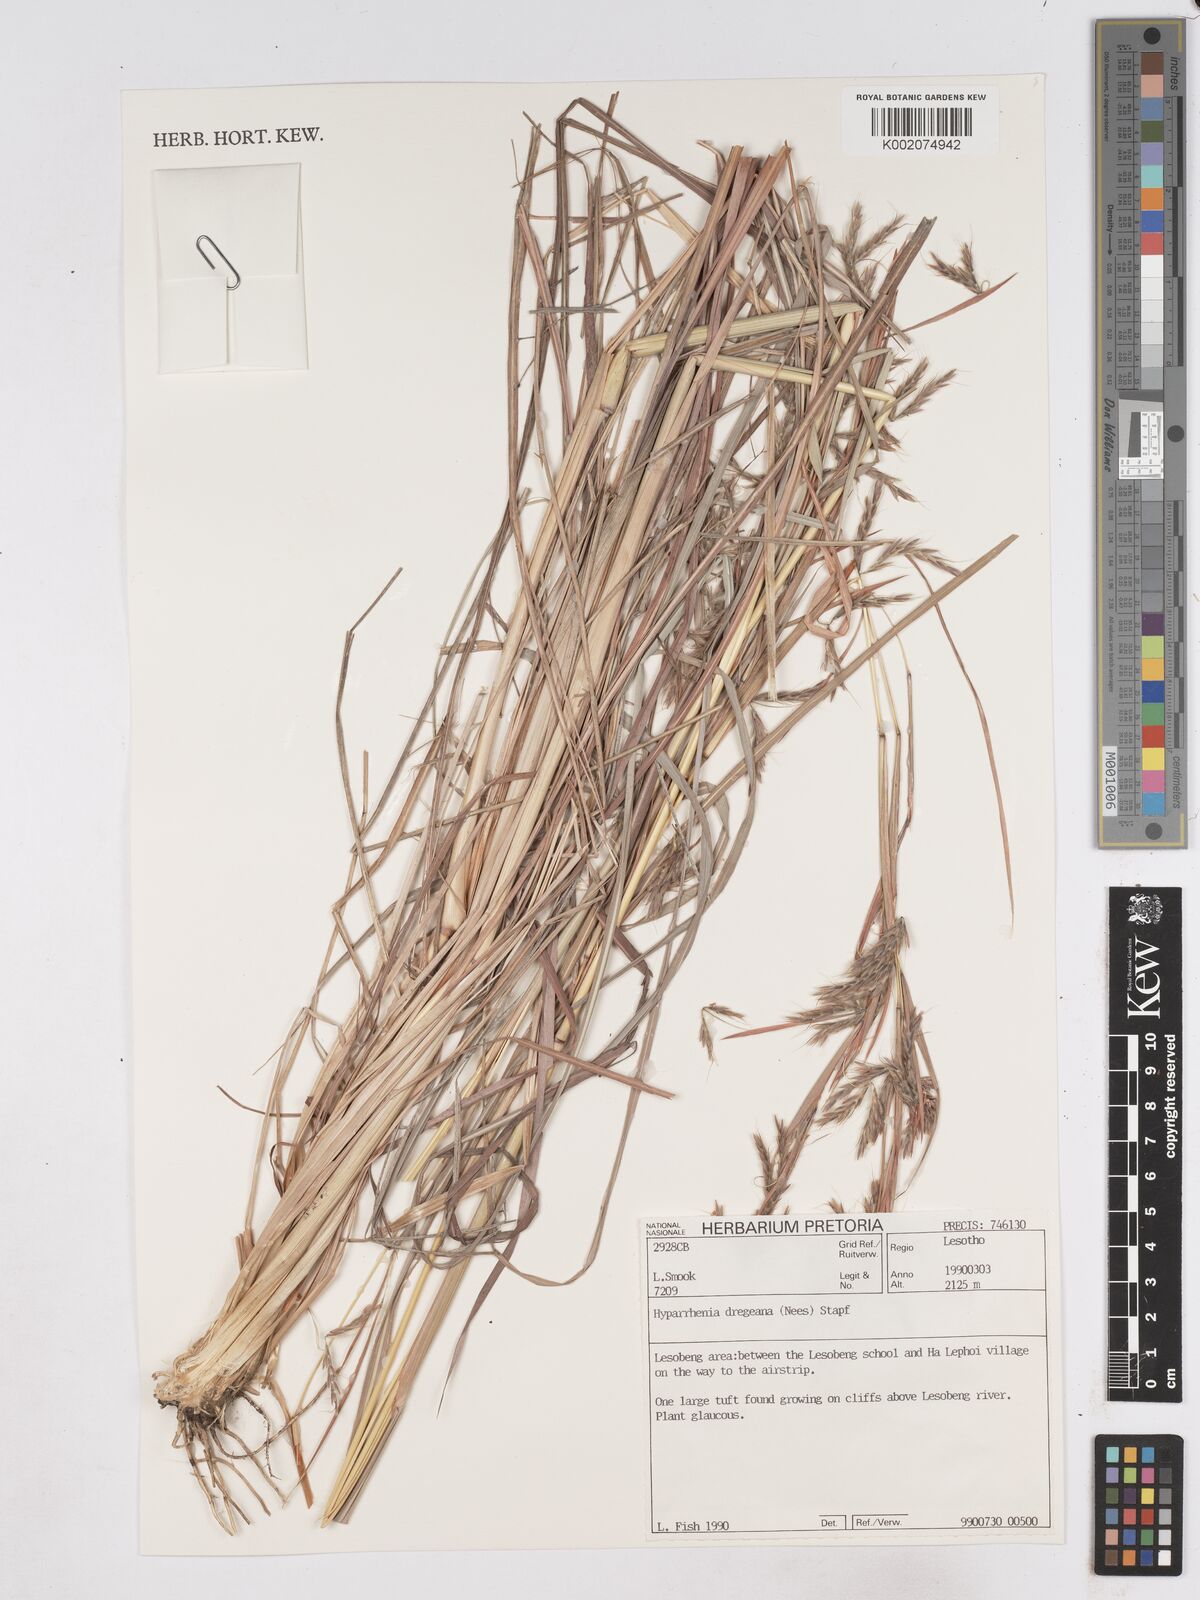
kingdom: Plantae
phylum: Tracheophyta
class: Liliopsida
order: Poales
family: Poaceae
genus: Hyparrhenia
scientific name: Hyparrhenia dregeana
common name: Silky thatching grass
